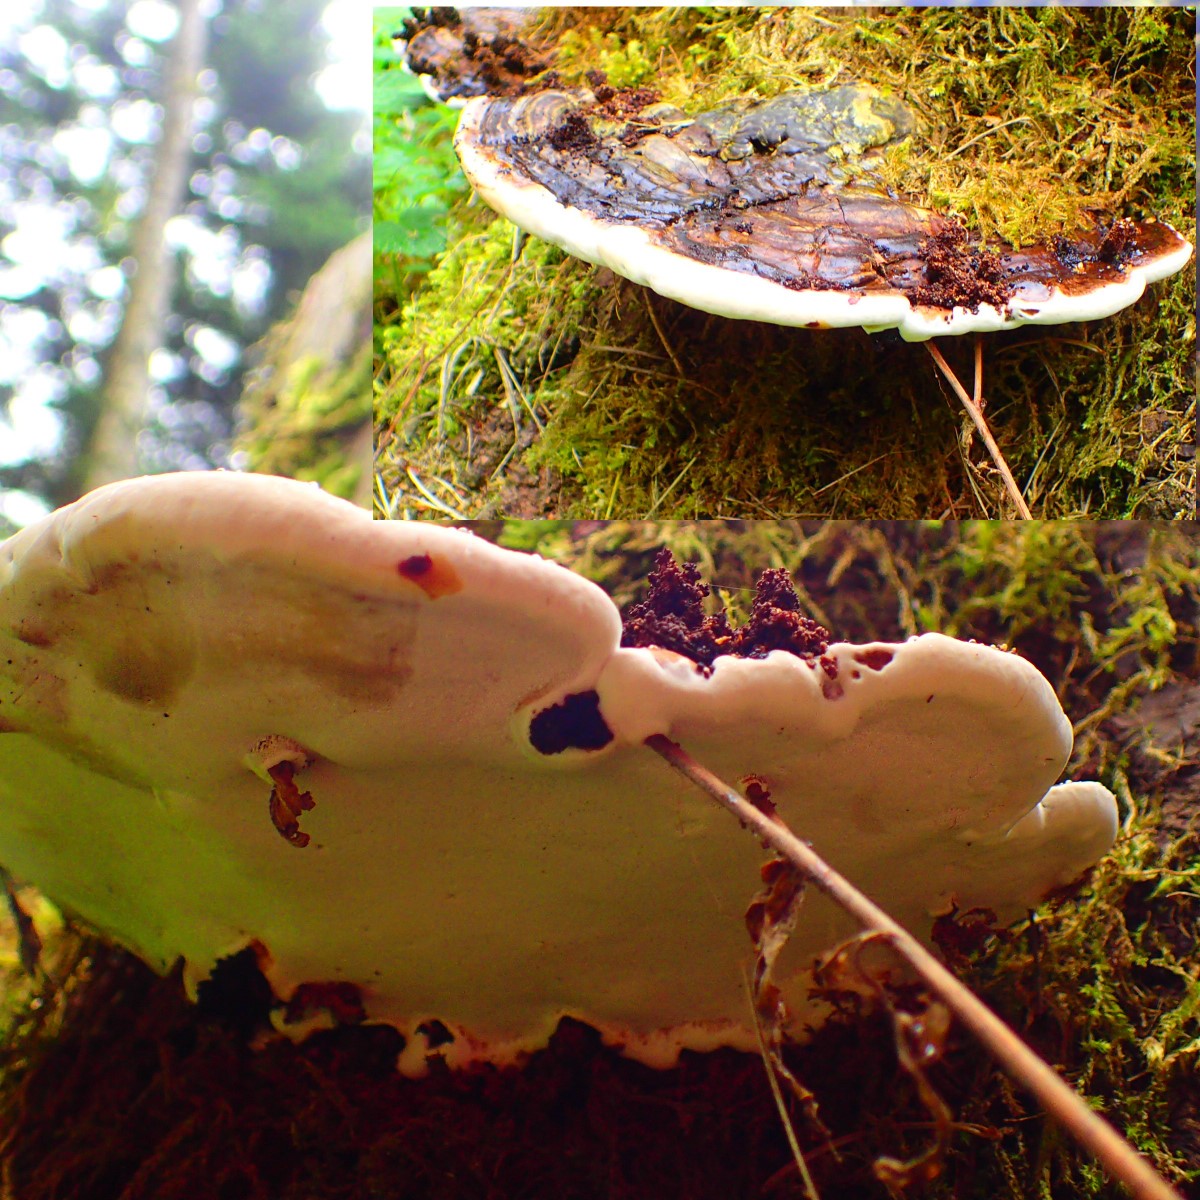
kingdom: Fungi
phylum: Basidiomycota
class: Agaricomycetes
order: Russulales
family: Bondarzewiaceae
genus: Heterobasidion
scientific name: Heterobasidion annosum
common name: almindelig rodfordærver
